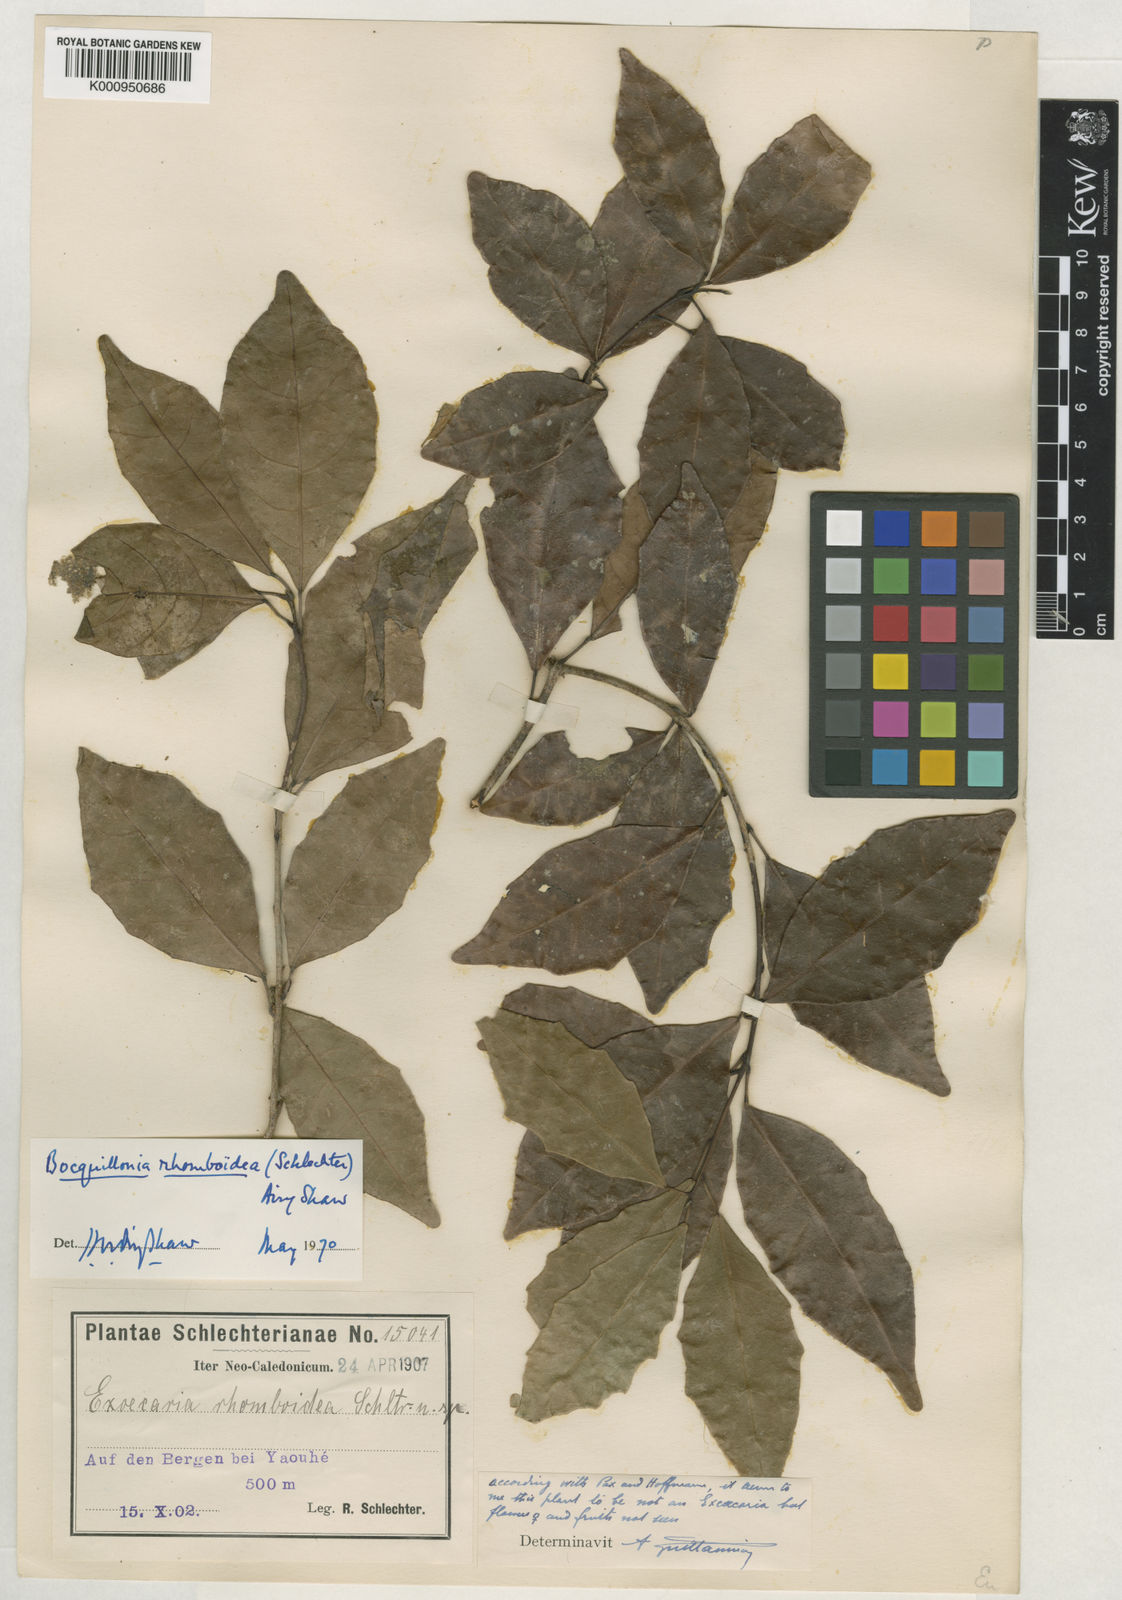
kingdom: Plantae
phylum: Tracheophyta
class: Magnoliopsida
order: Malpighiales
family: Euphorbiaceae
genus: Bocquillonia
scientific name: Bocquillonia rhomboidea
